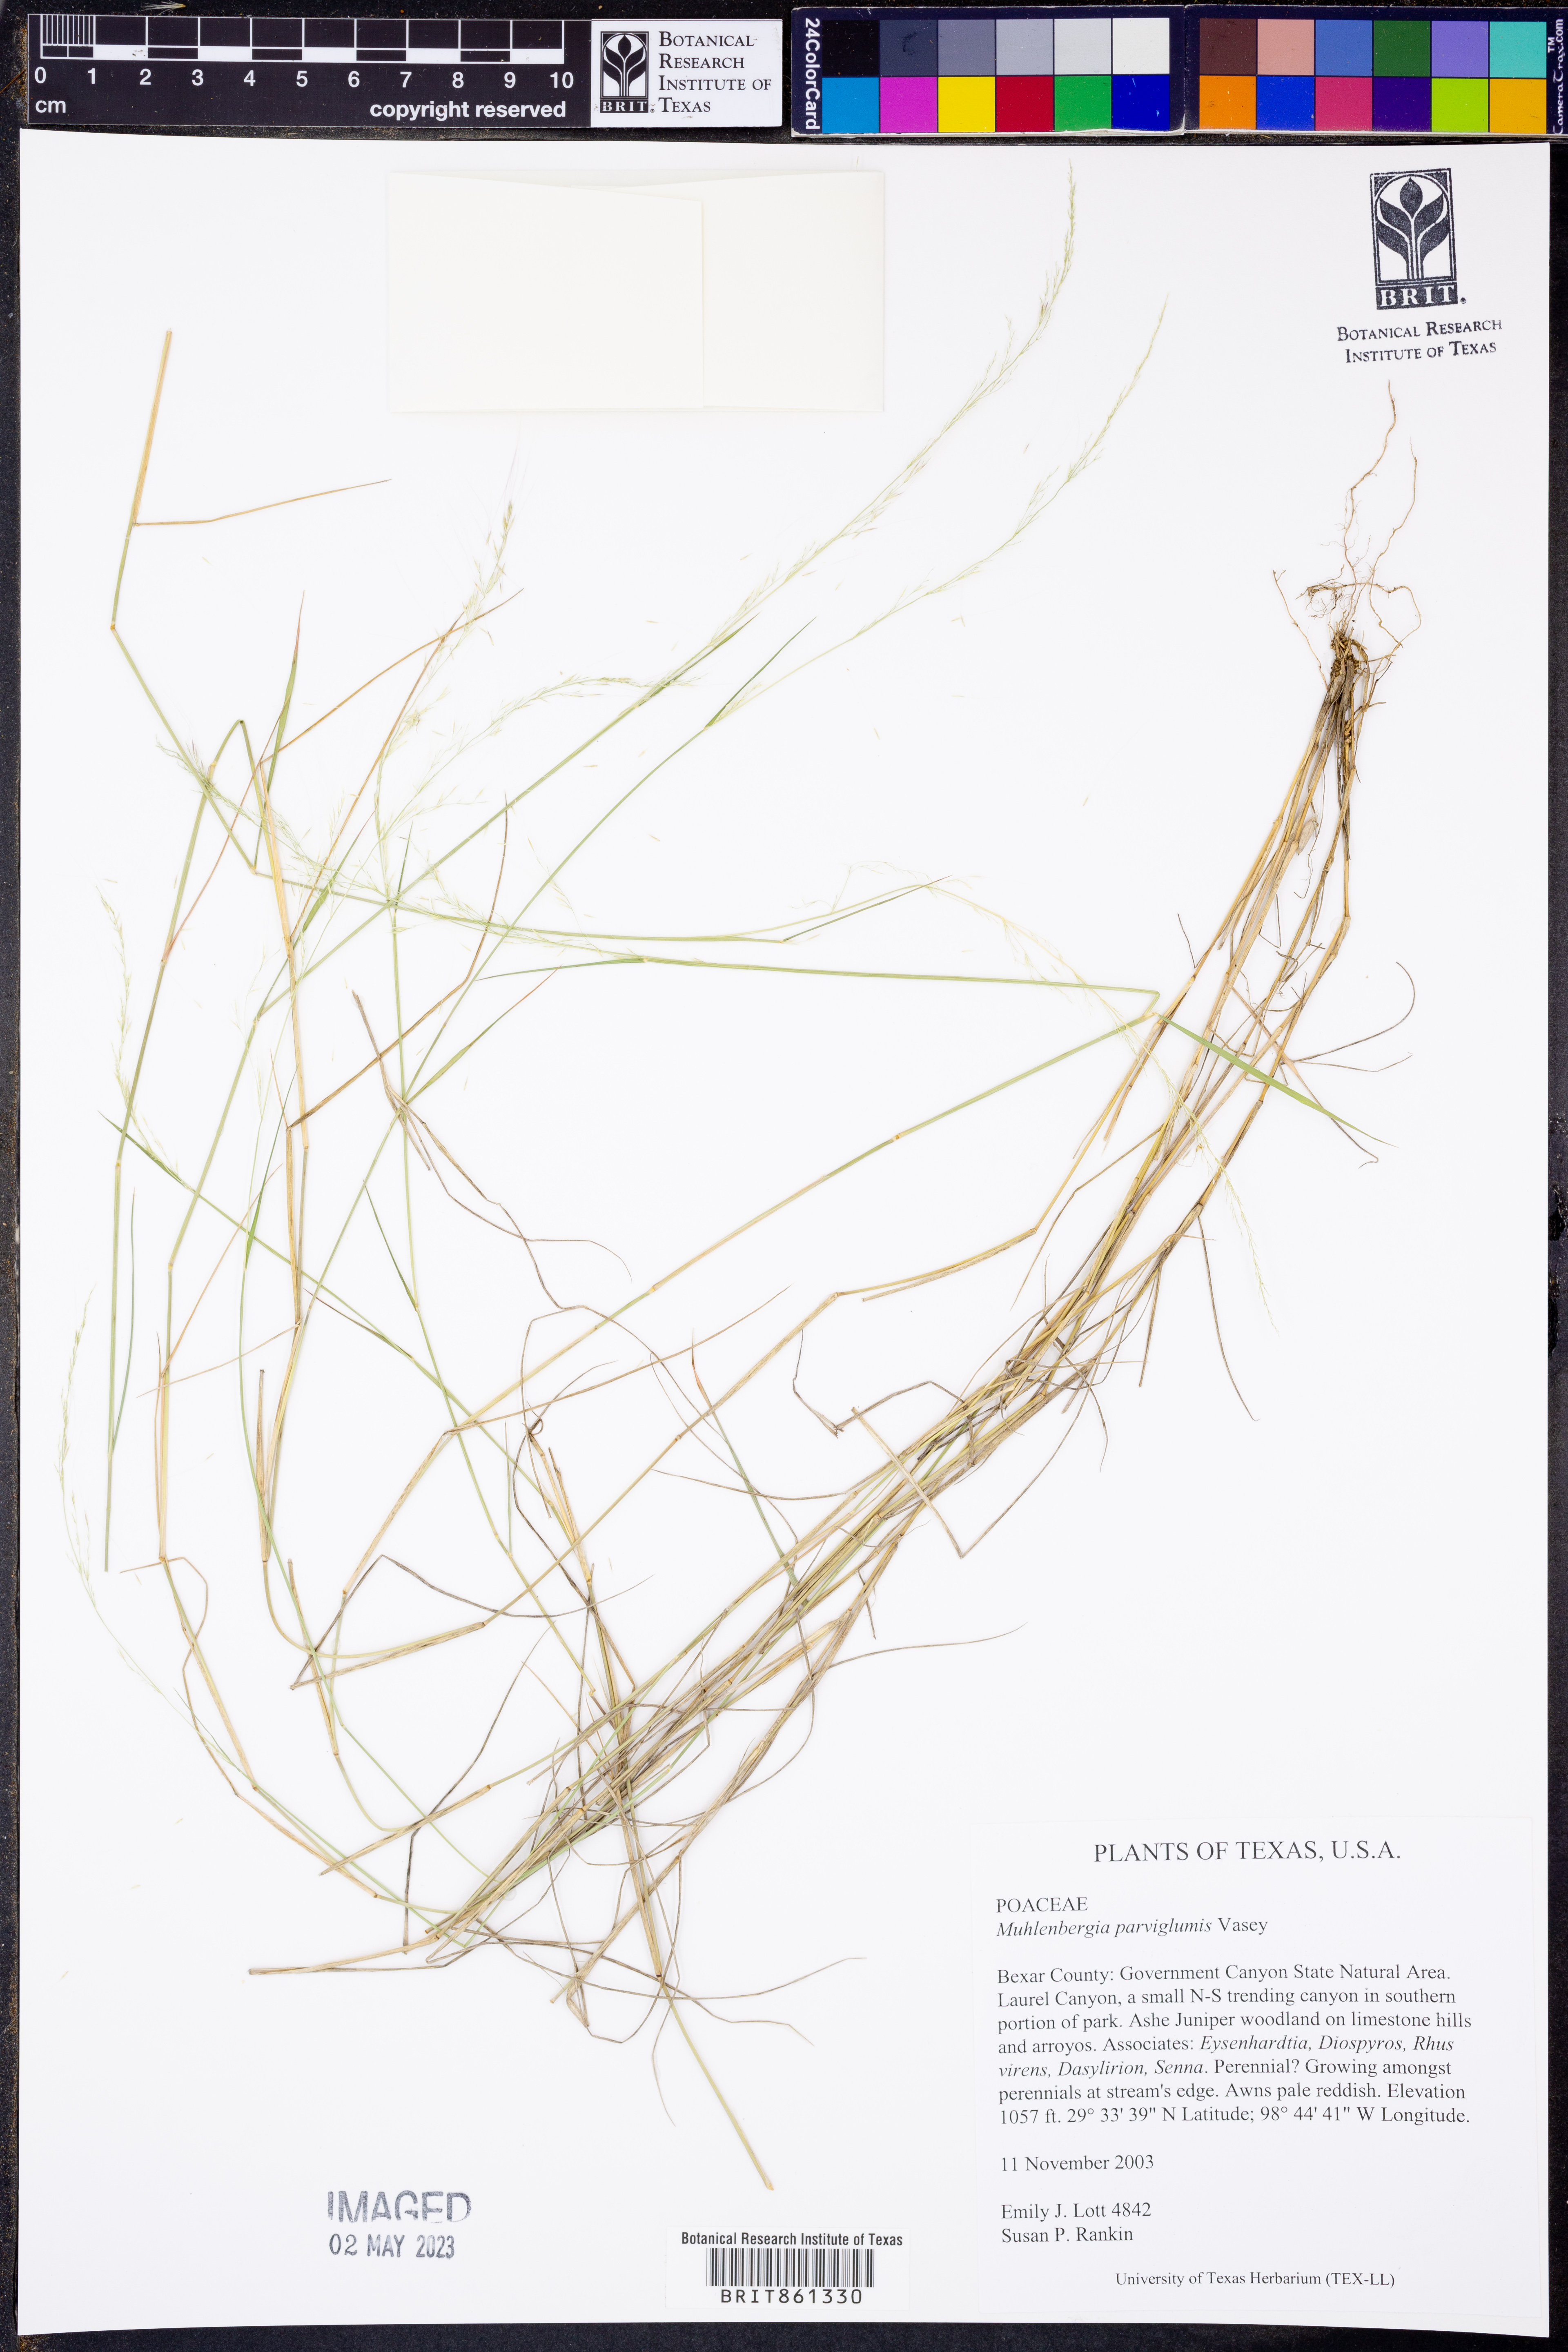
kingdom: Plantae
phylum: Tracheophyta
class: Liliopsida
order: Poales
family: Poaceae
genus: Muhlenbergia
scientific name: Muhlenbergia spiciformis
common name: Longawn muhly
